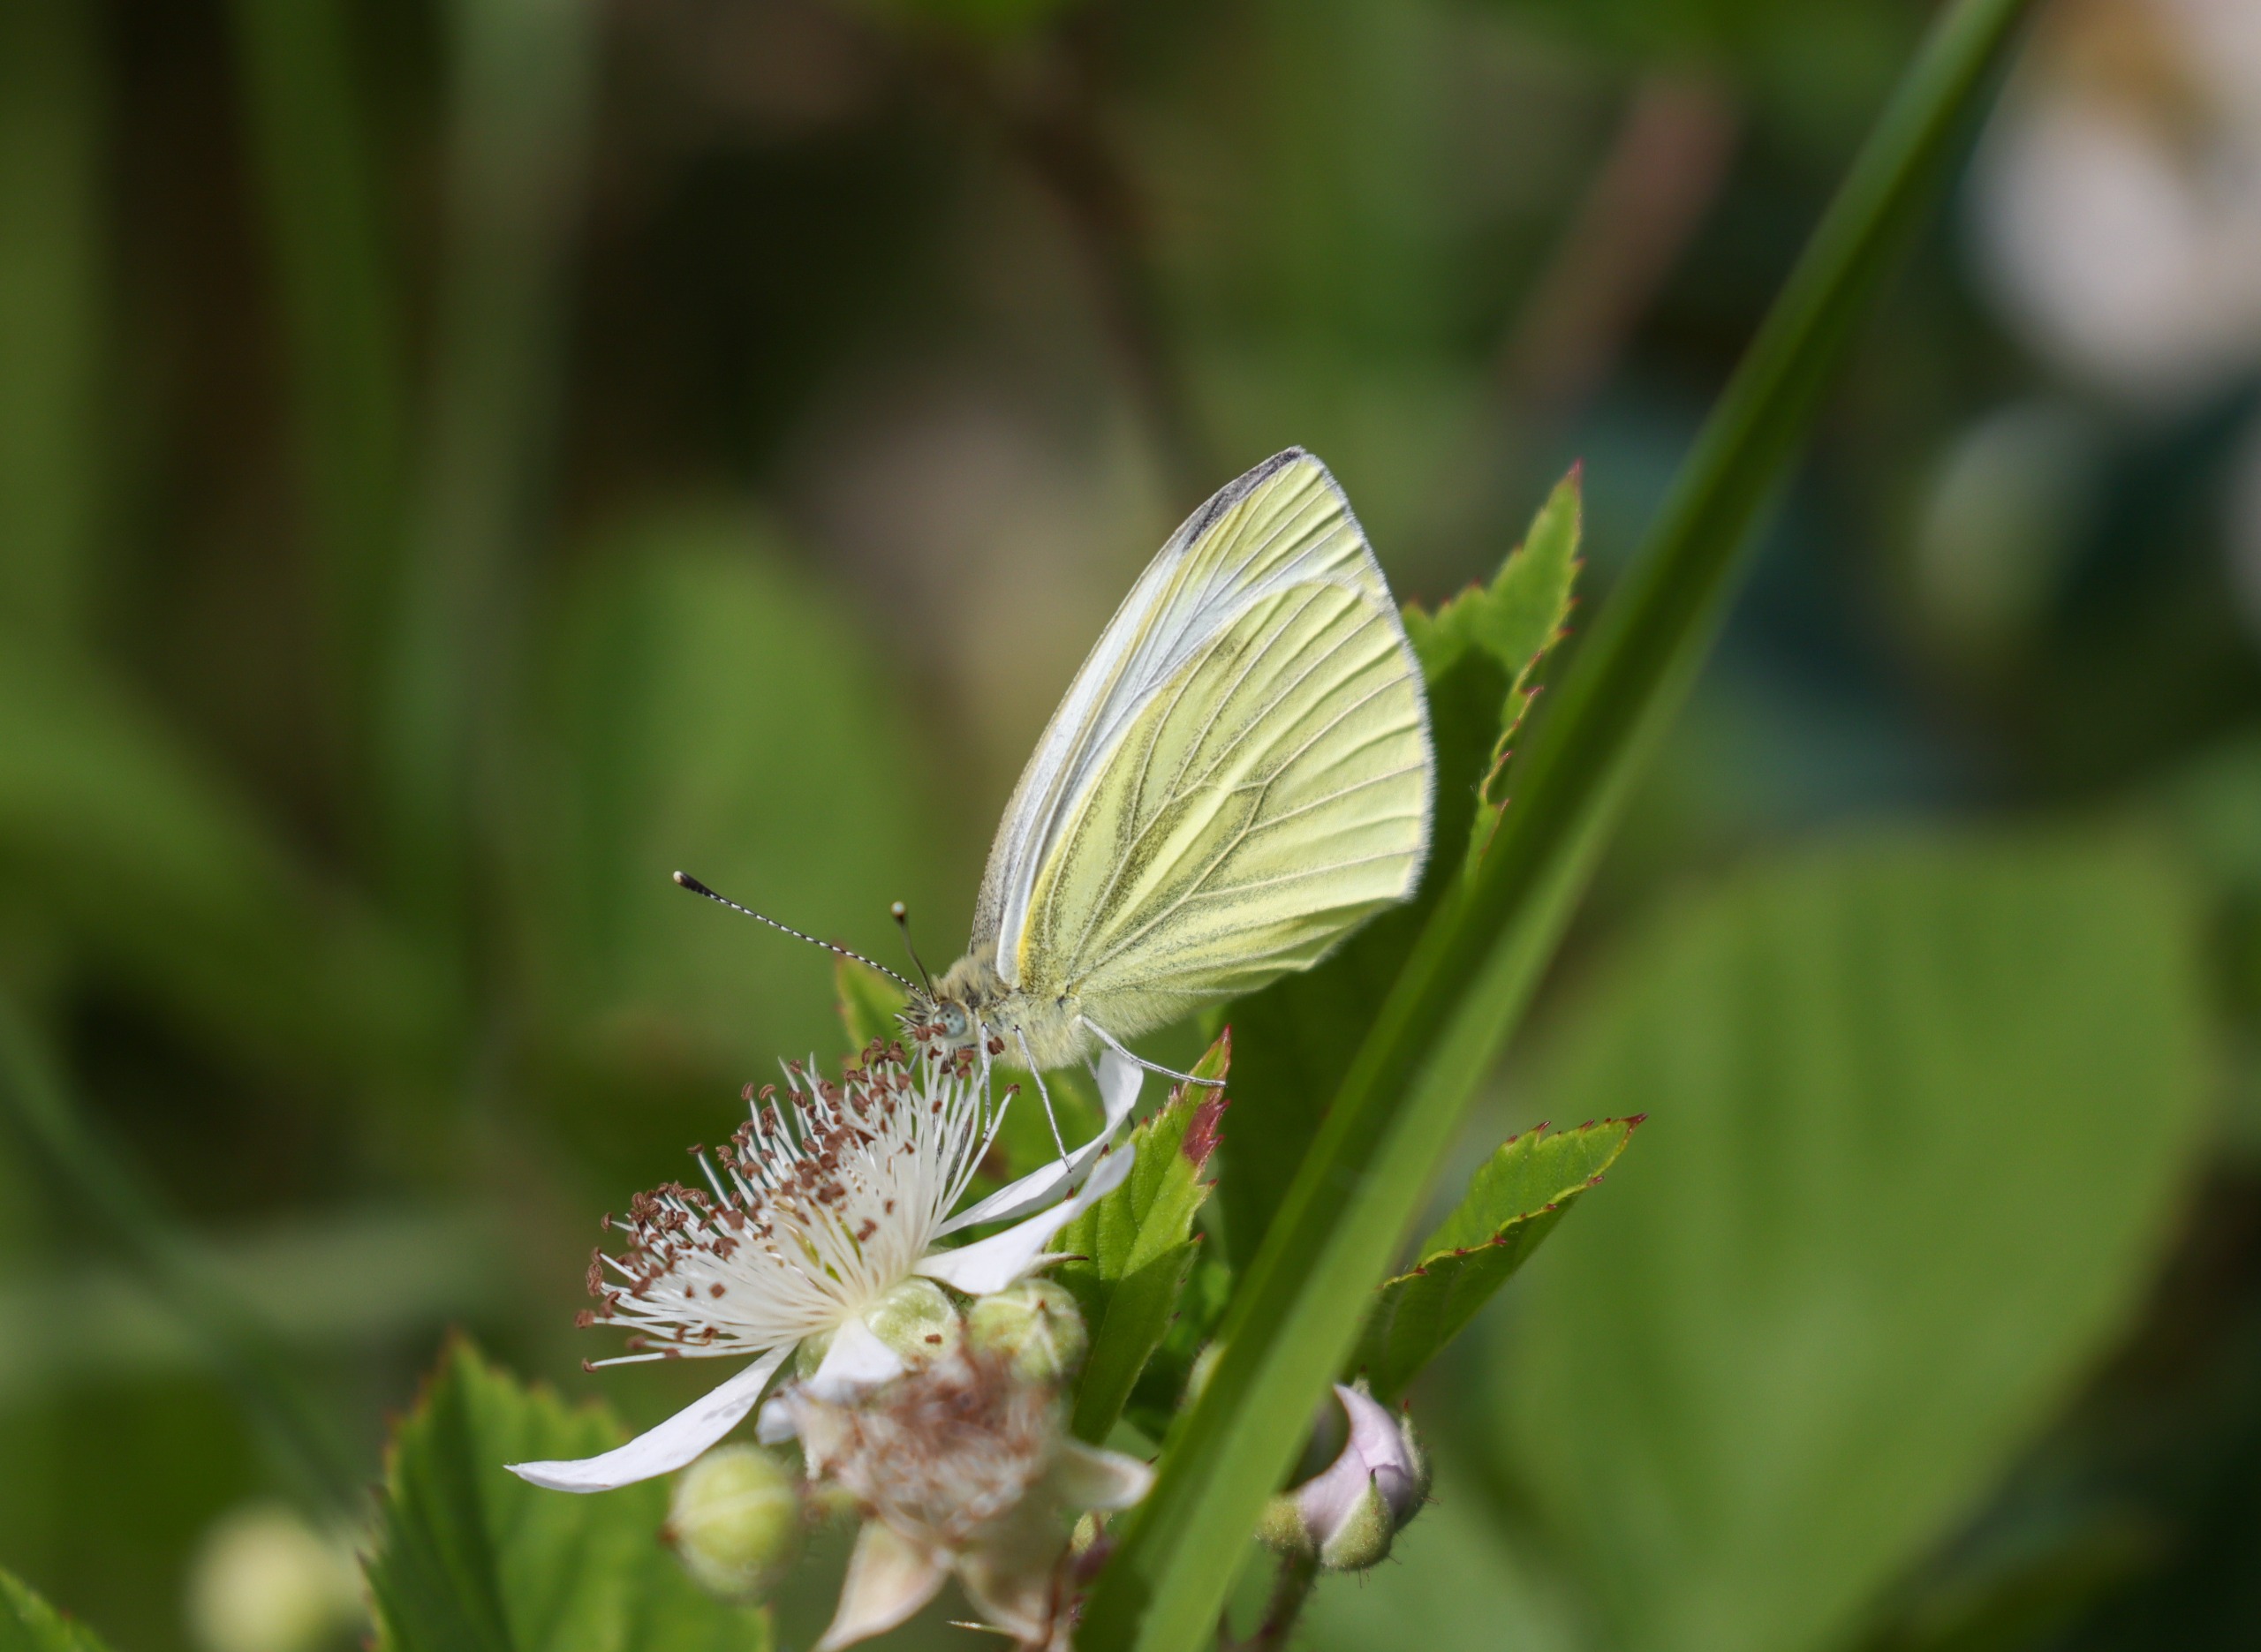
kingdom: Animalia
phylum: Arthropoda
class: Insecta
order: Lepidoptera
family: Pieridae
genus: Pieris
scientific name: Pieris napi
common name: Grønåret kålsommerfugl
